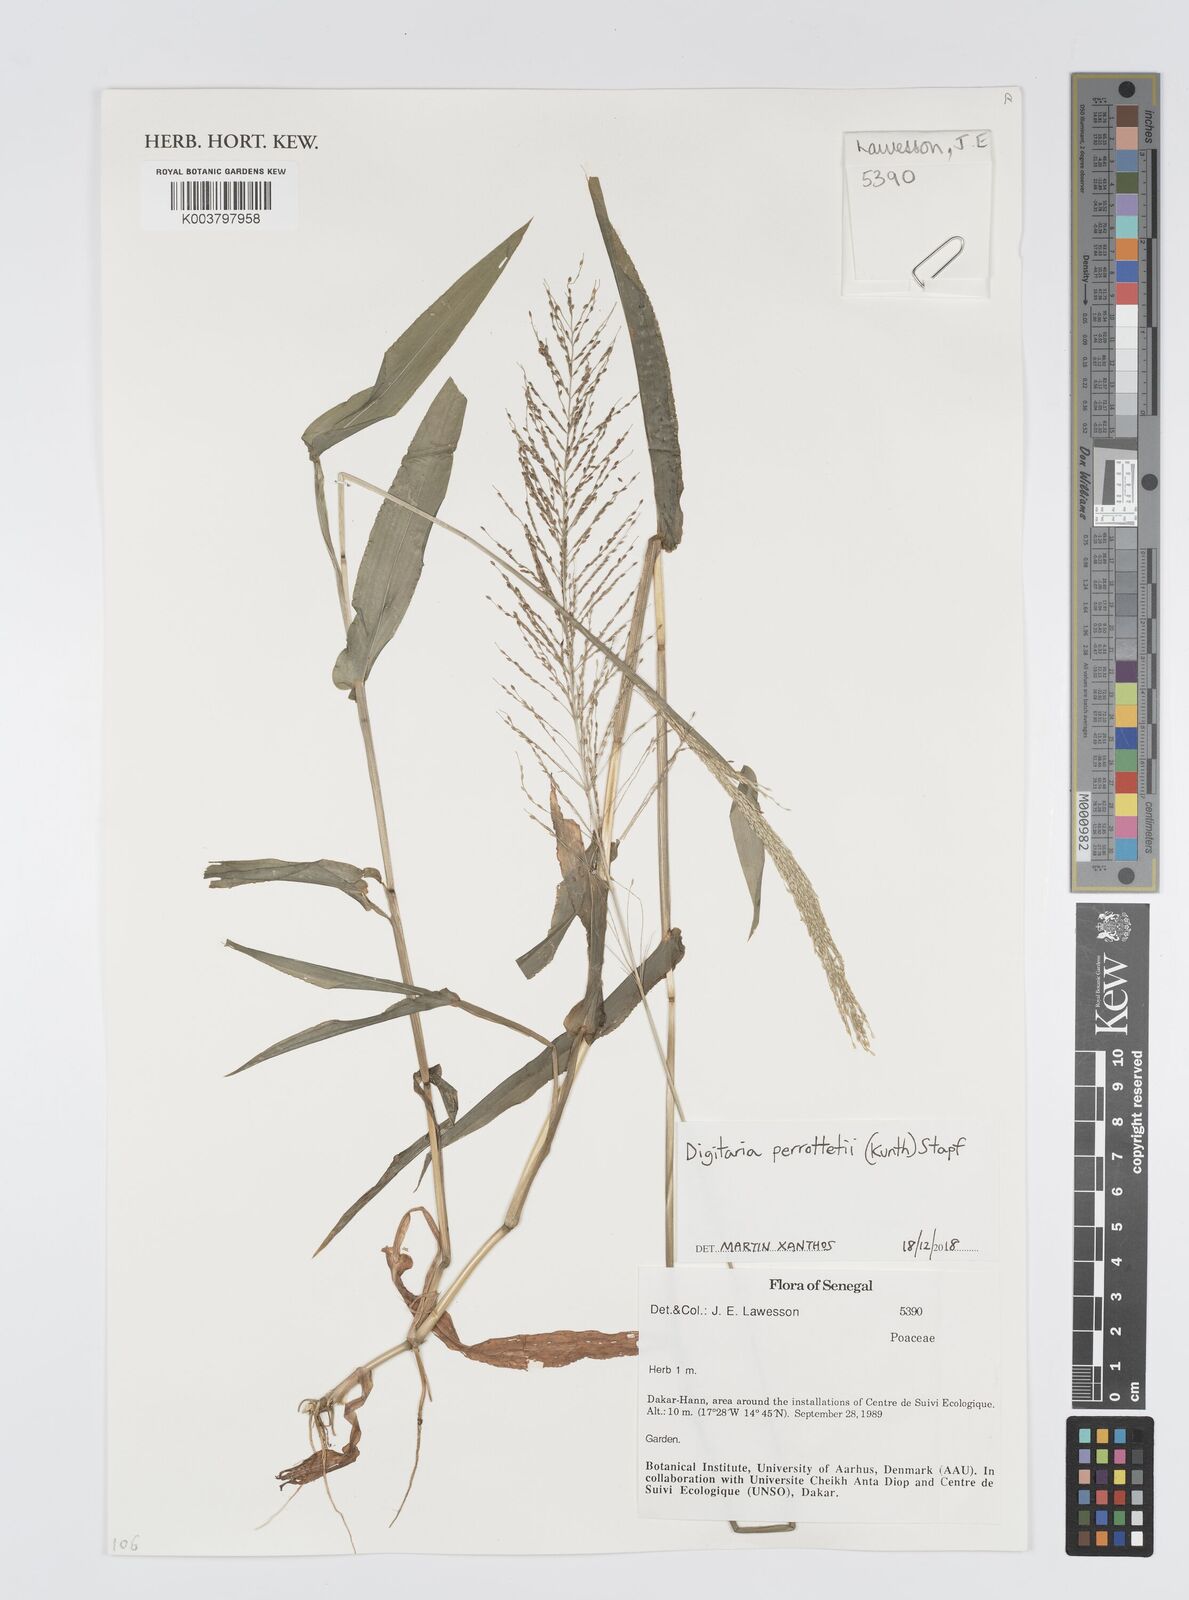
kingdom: Plantae
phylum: Tracheophyta
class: Liliopsida
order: Poales
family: Poaceae
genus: Digitaria
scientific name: Digitaria perrottetii
